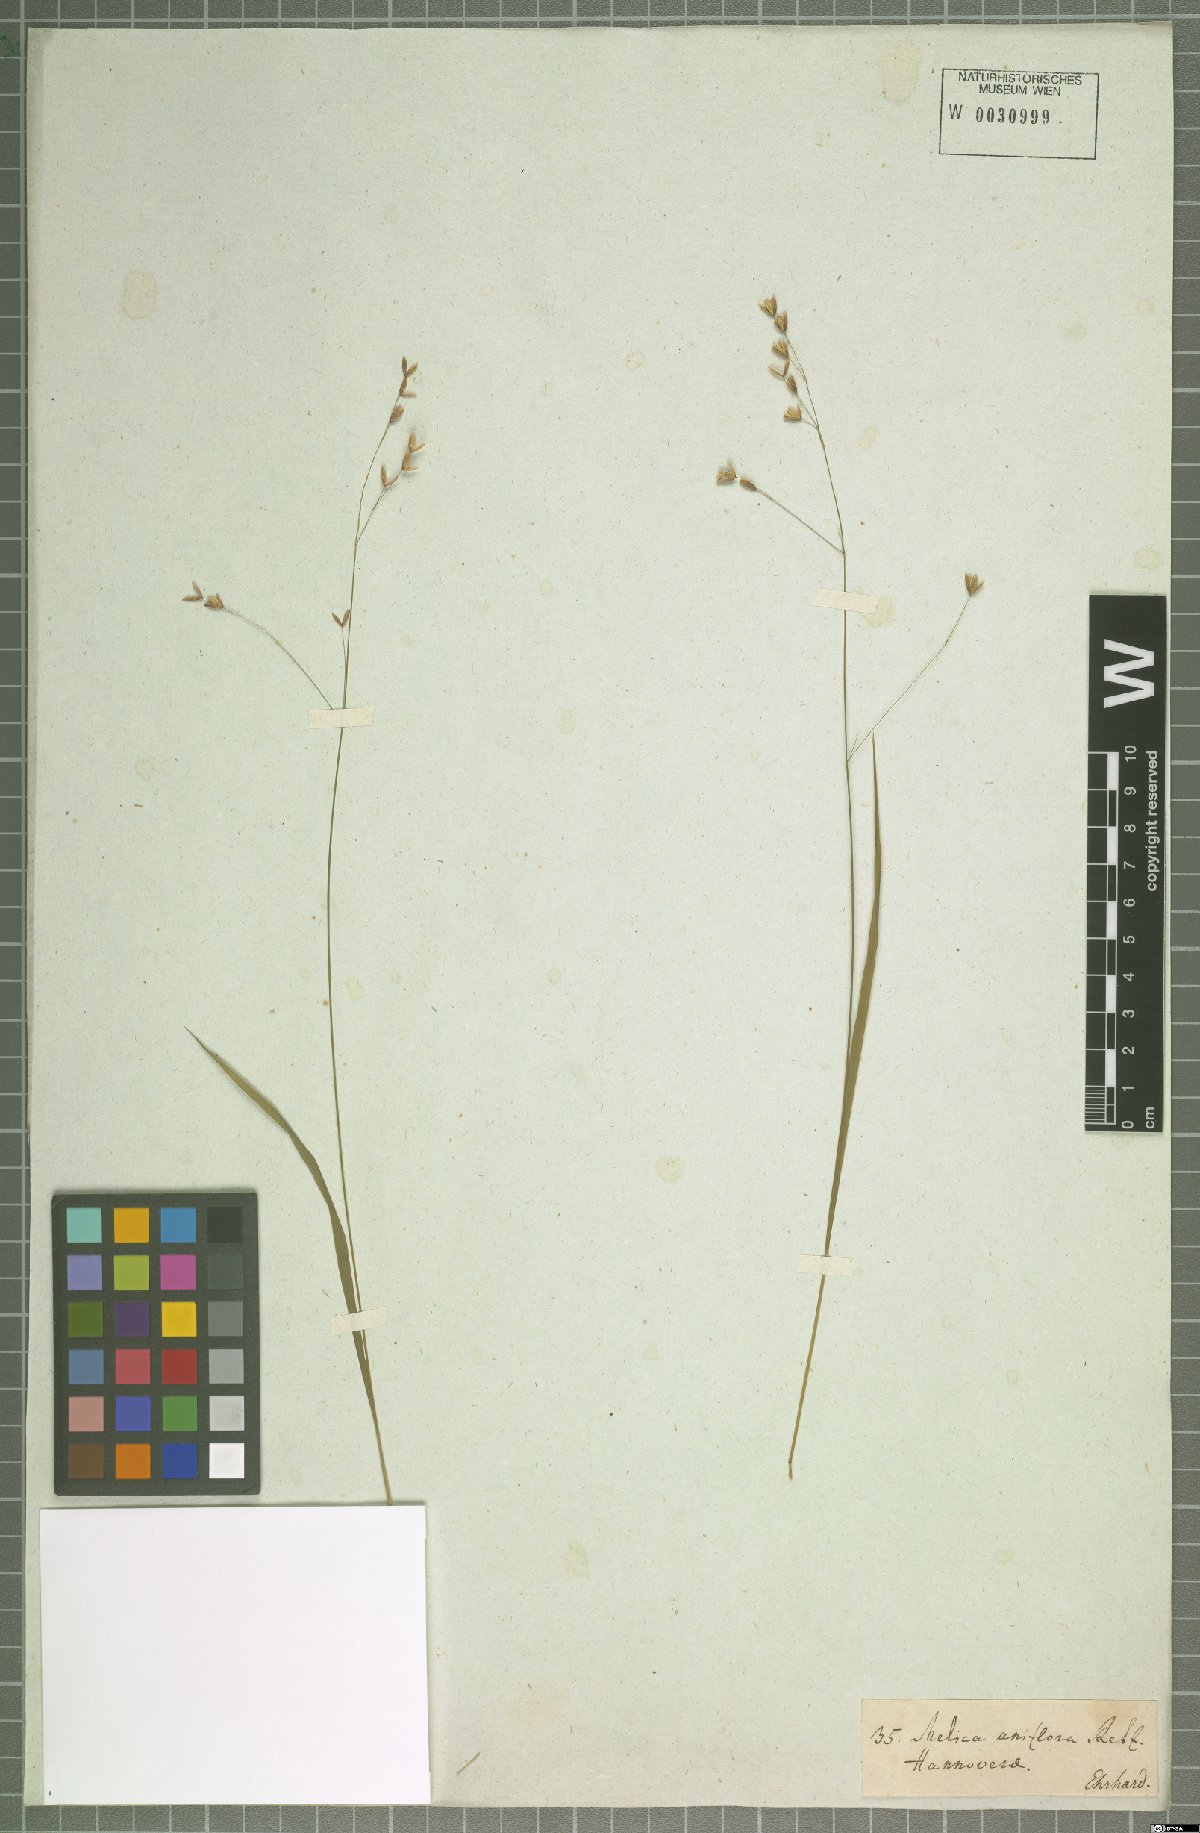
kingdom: Plantae
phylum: Tracheophyta
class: Liliopsida
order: Poales
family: Poaceae
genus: Melica
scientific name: Melica uniflora
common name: Wood melick
